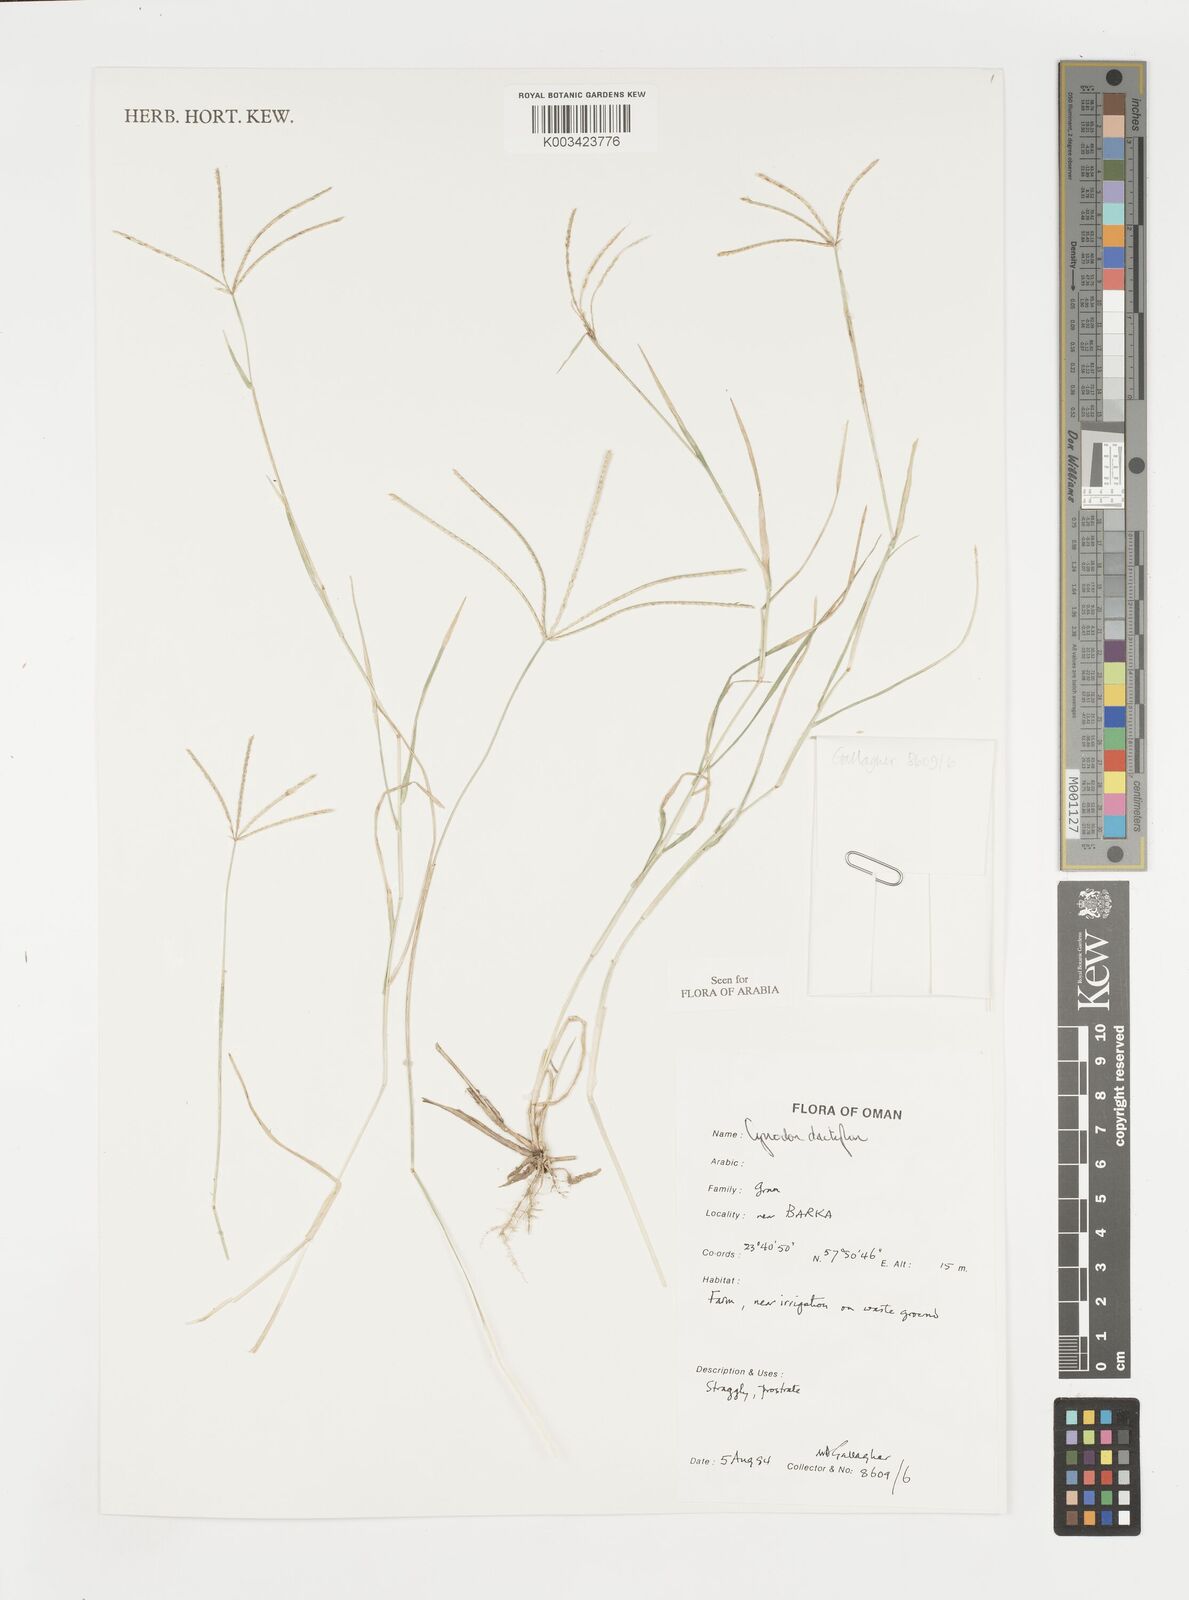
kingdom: Plantae
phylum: Tracheophyta
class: Liliopsida
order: Poales
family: Poaceae
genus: Cynodon
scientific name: Cynodon dactylon
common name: Bermuda grass
